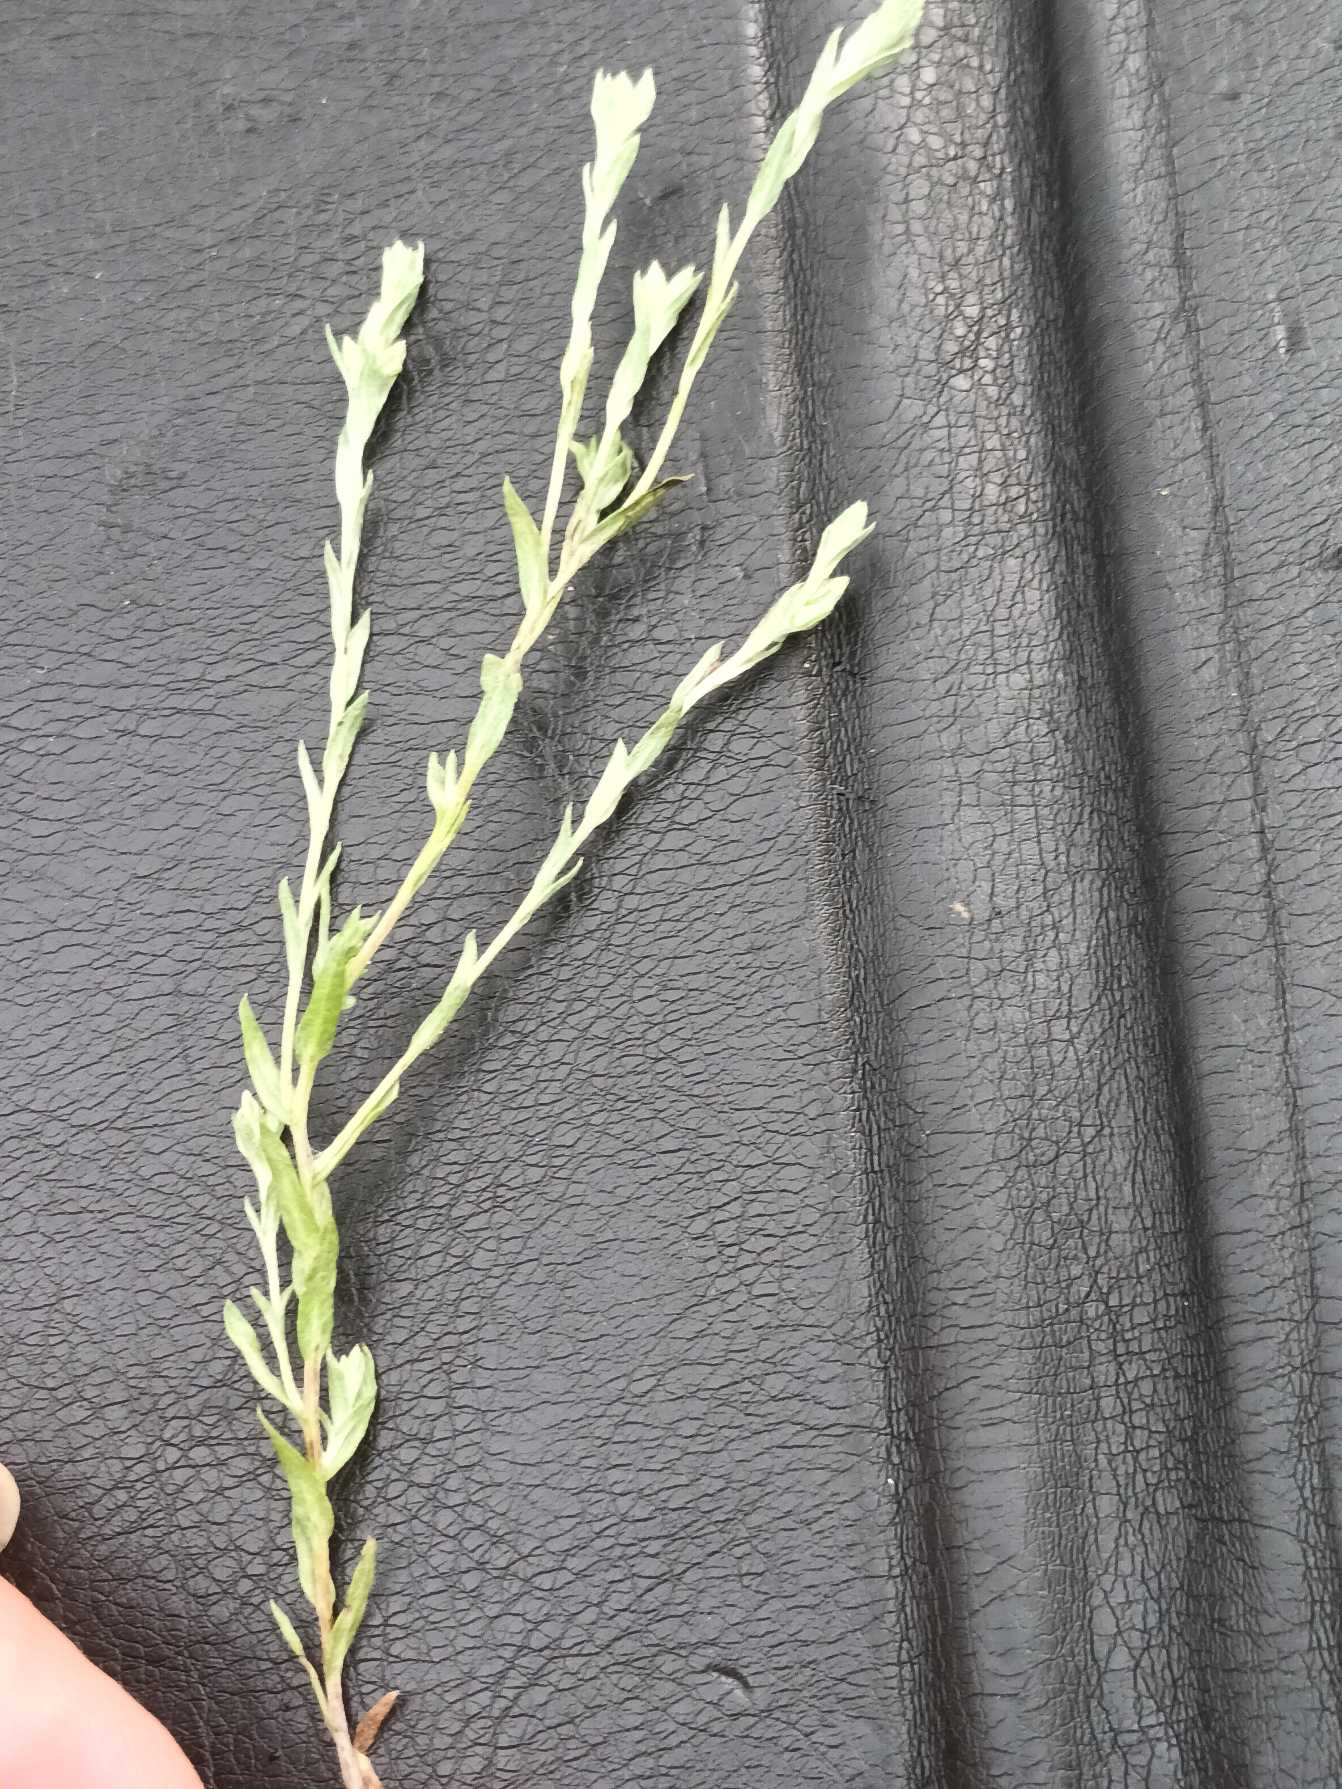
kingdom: Plantae
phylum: Tracheophyta
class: Magnoliopsida
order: Asterales
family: Asteraceae
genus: Logfia
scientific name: Logfia minima
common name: Liden museurt
